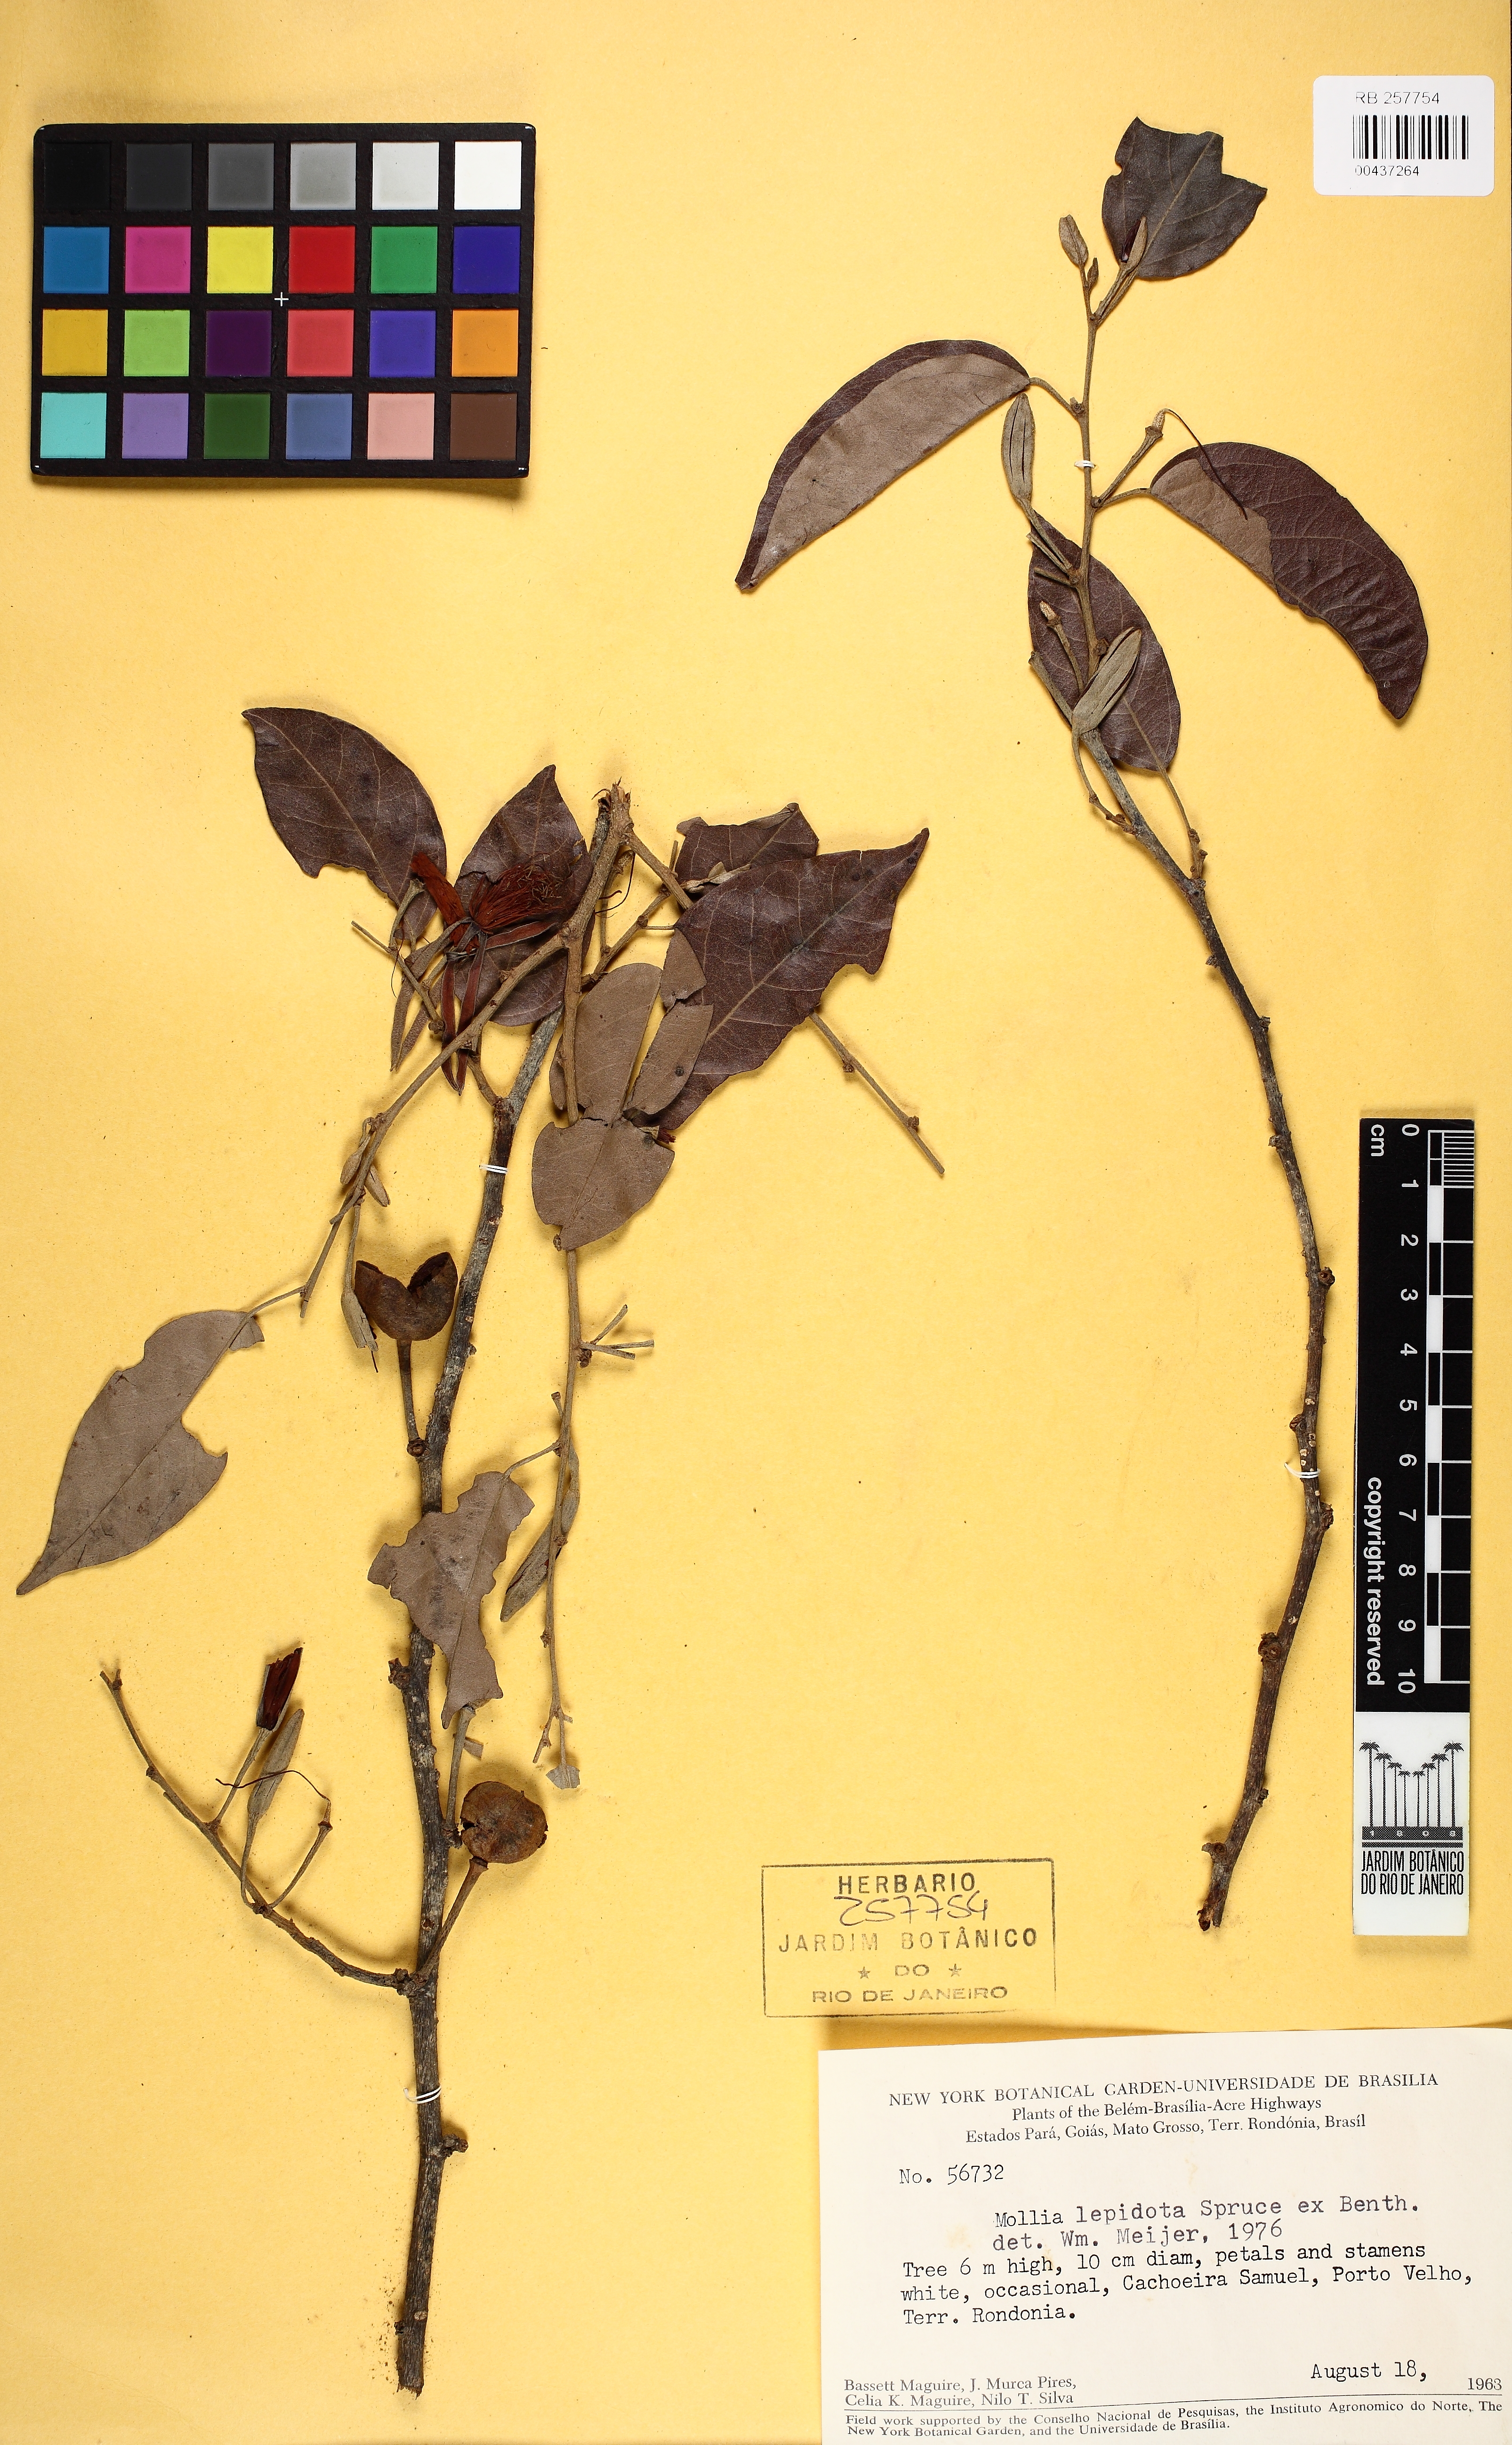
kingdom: Plantae
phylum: Tracheophyta
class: Magnoliopsida
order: Malvales
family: Malvaceae
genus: Mollia
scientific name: Mollia burchellii
